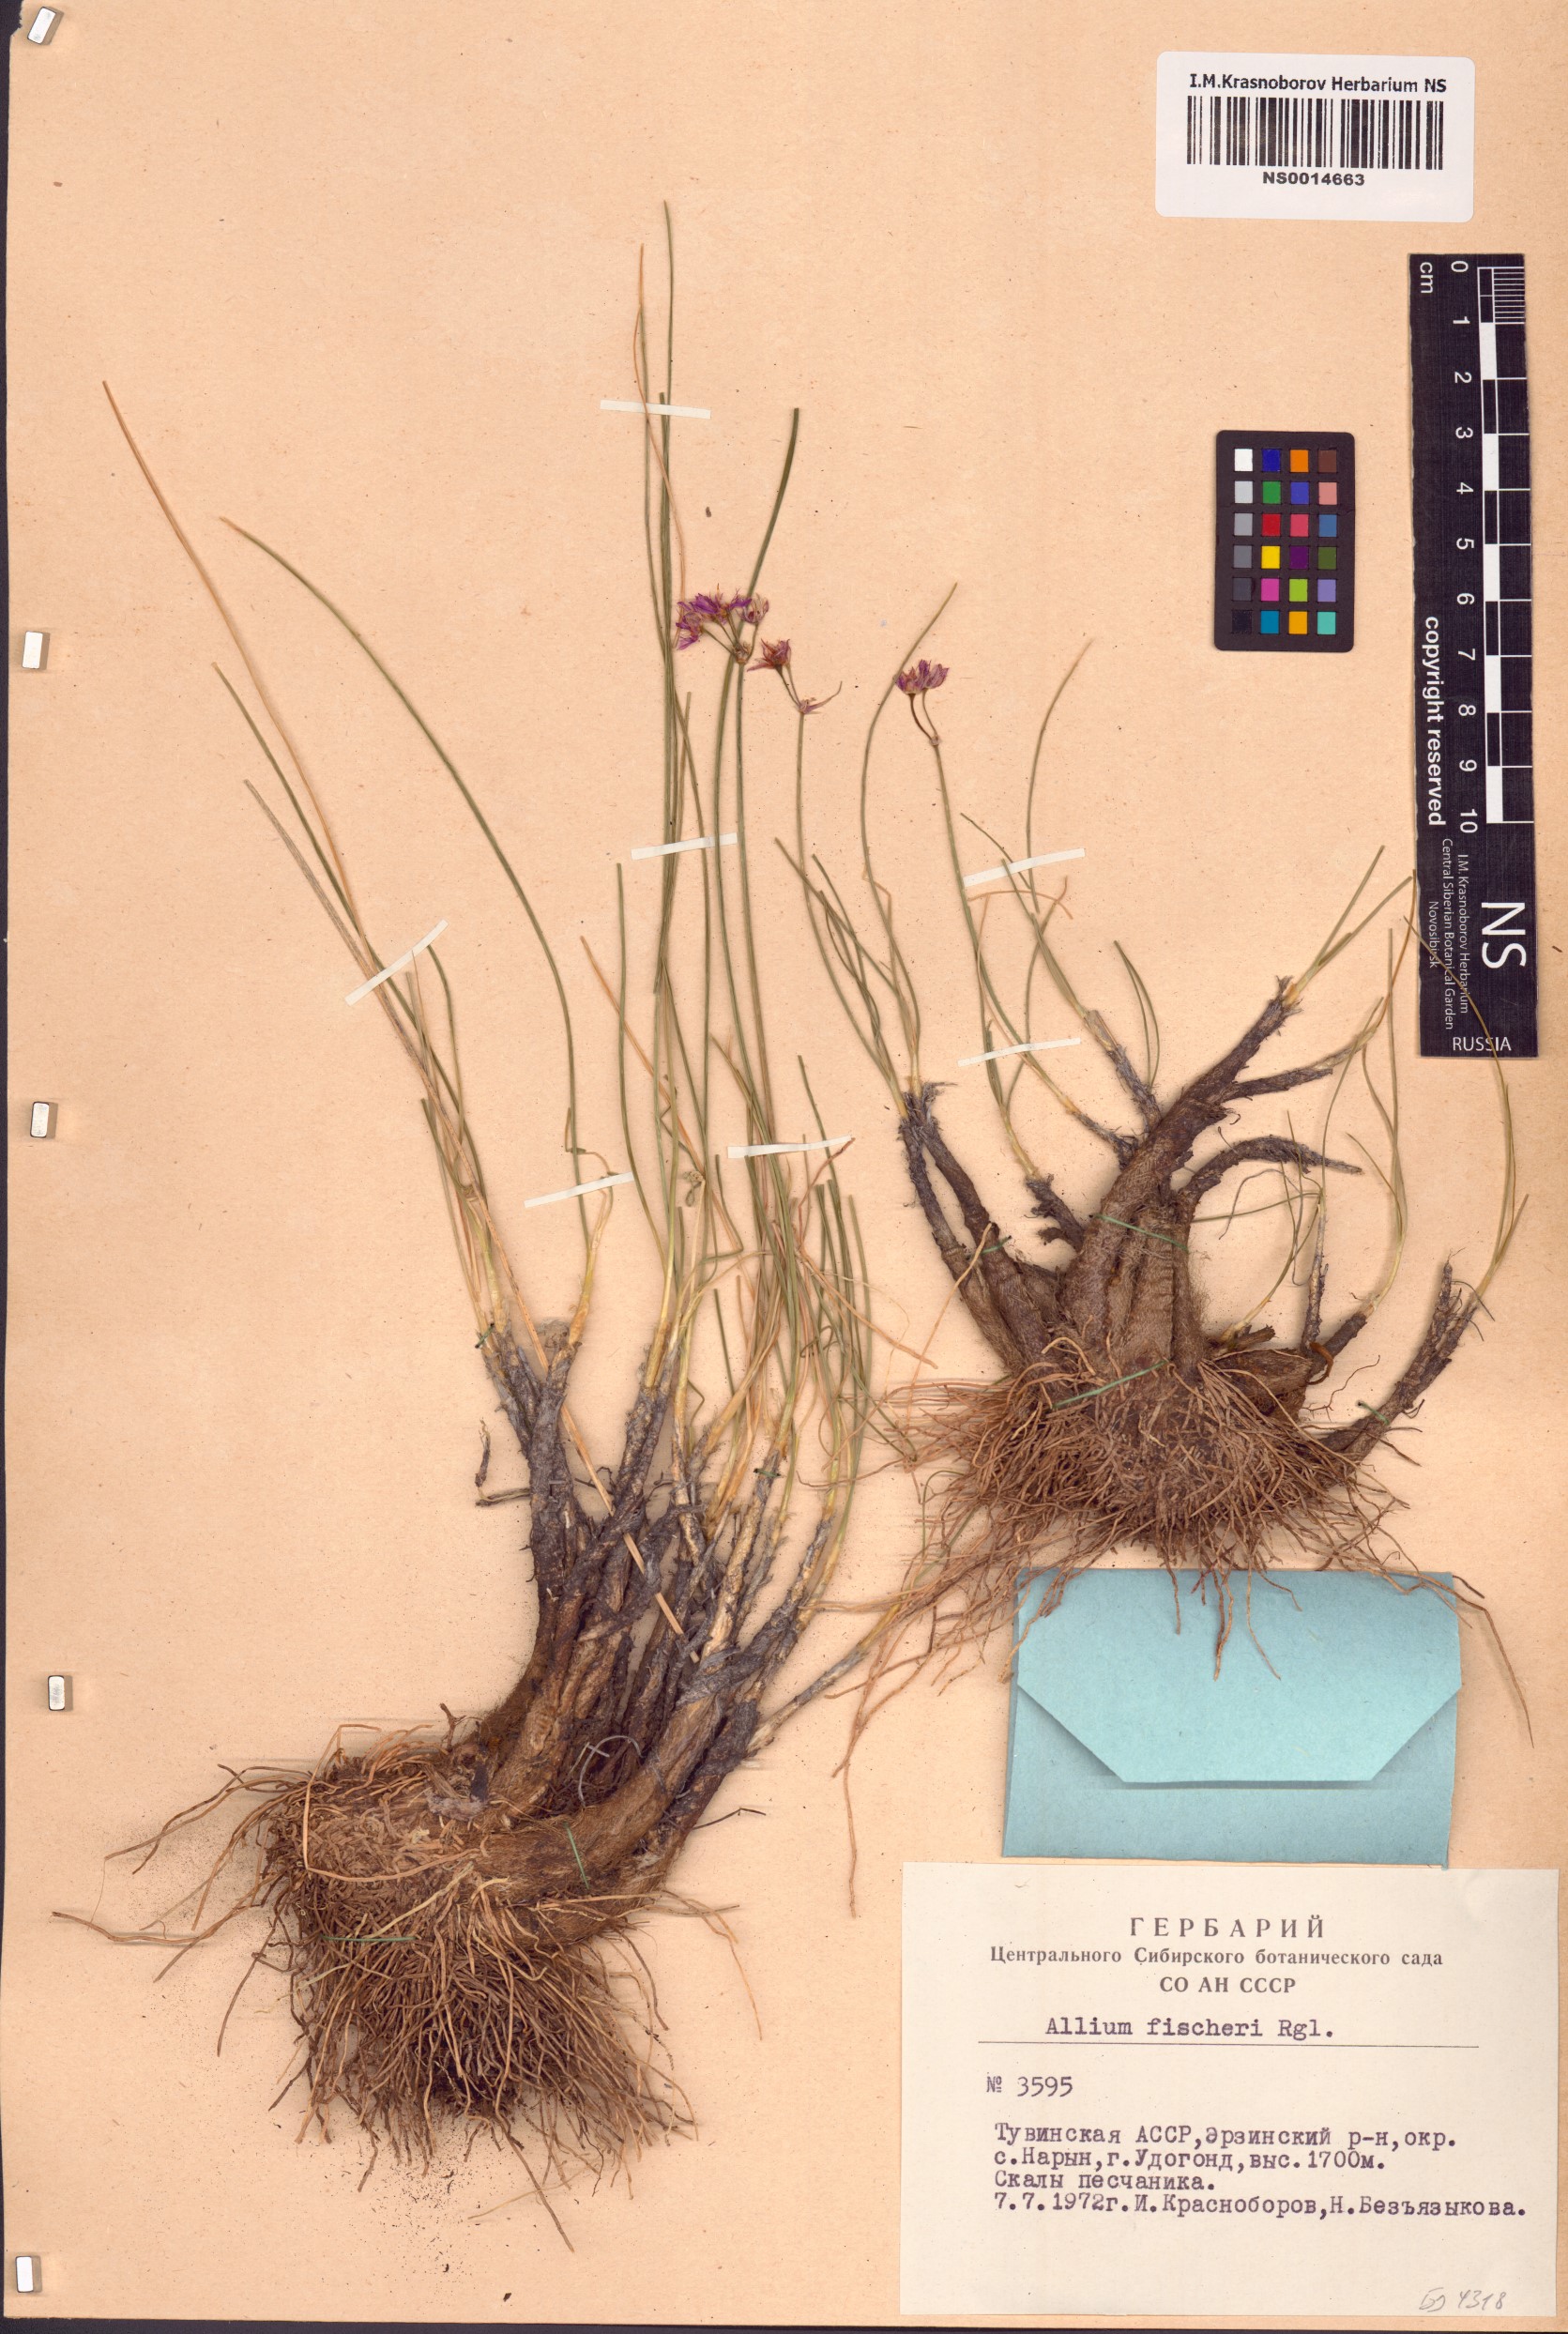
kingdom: Plantae
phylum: Tracheophyta
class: Liliopsida
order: Asparagales
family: Amaryllidaceae
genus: Allium
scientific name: Allium eduardi
